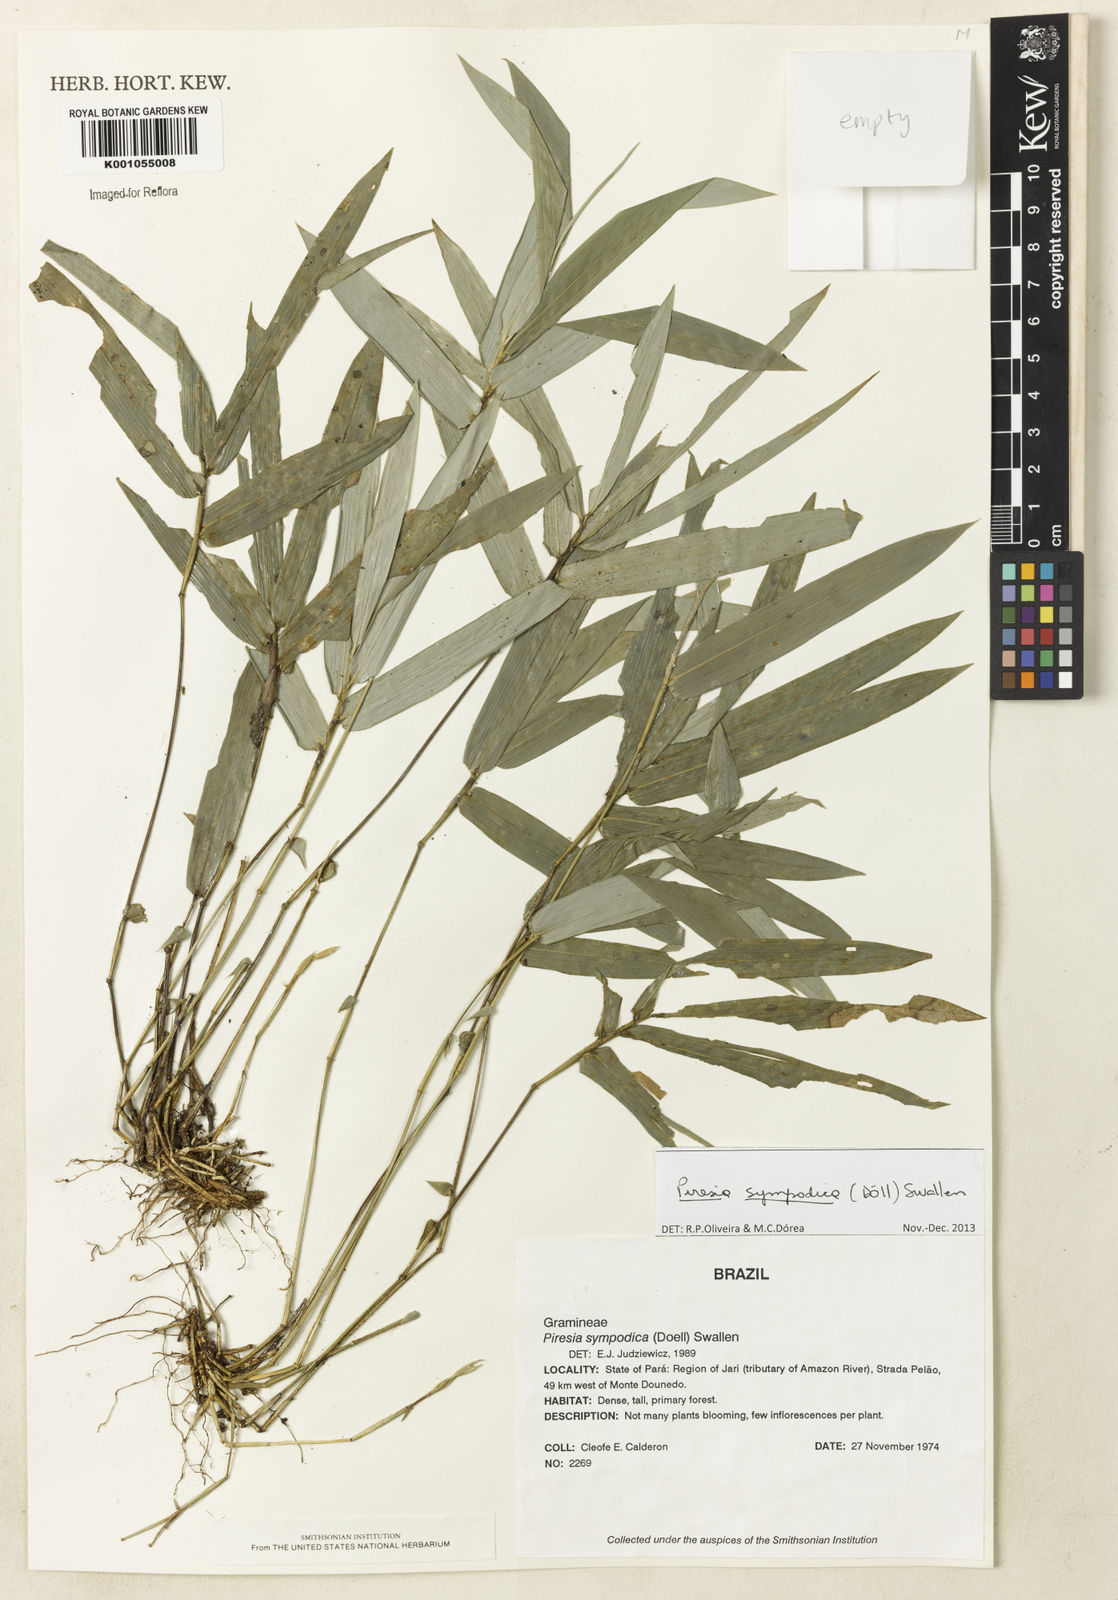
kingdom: Plantae
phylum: Tracheophyta
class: Liliopsida
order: Poales
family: Poaceae
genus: Piresia
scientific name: Piresia
